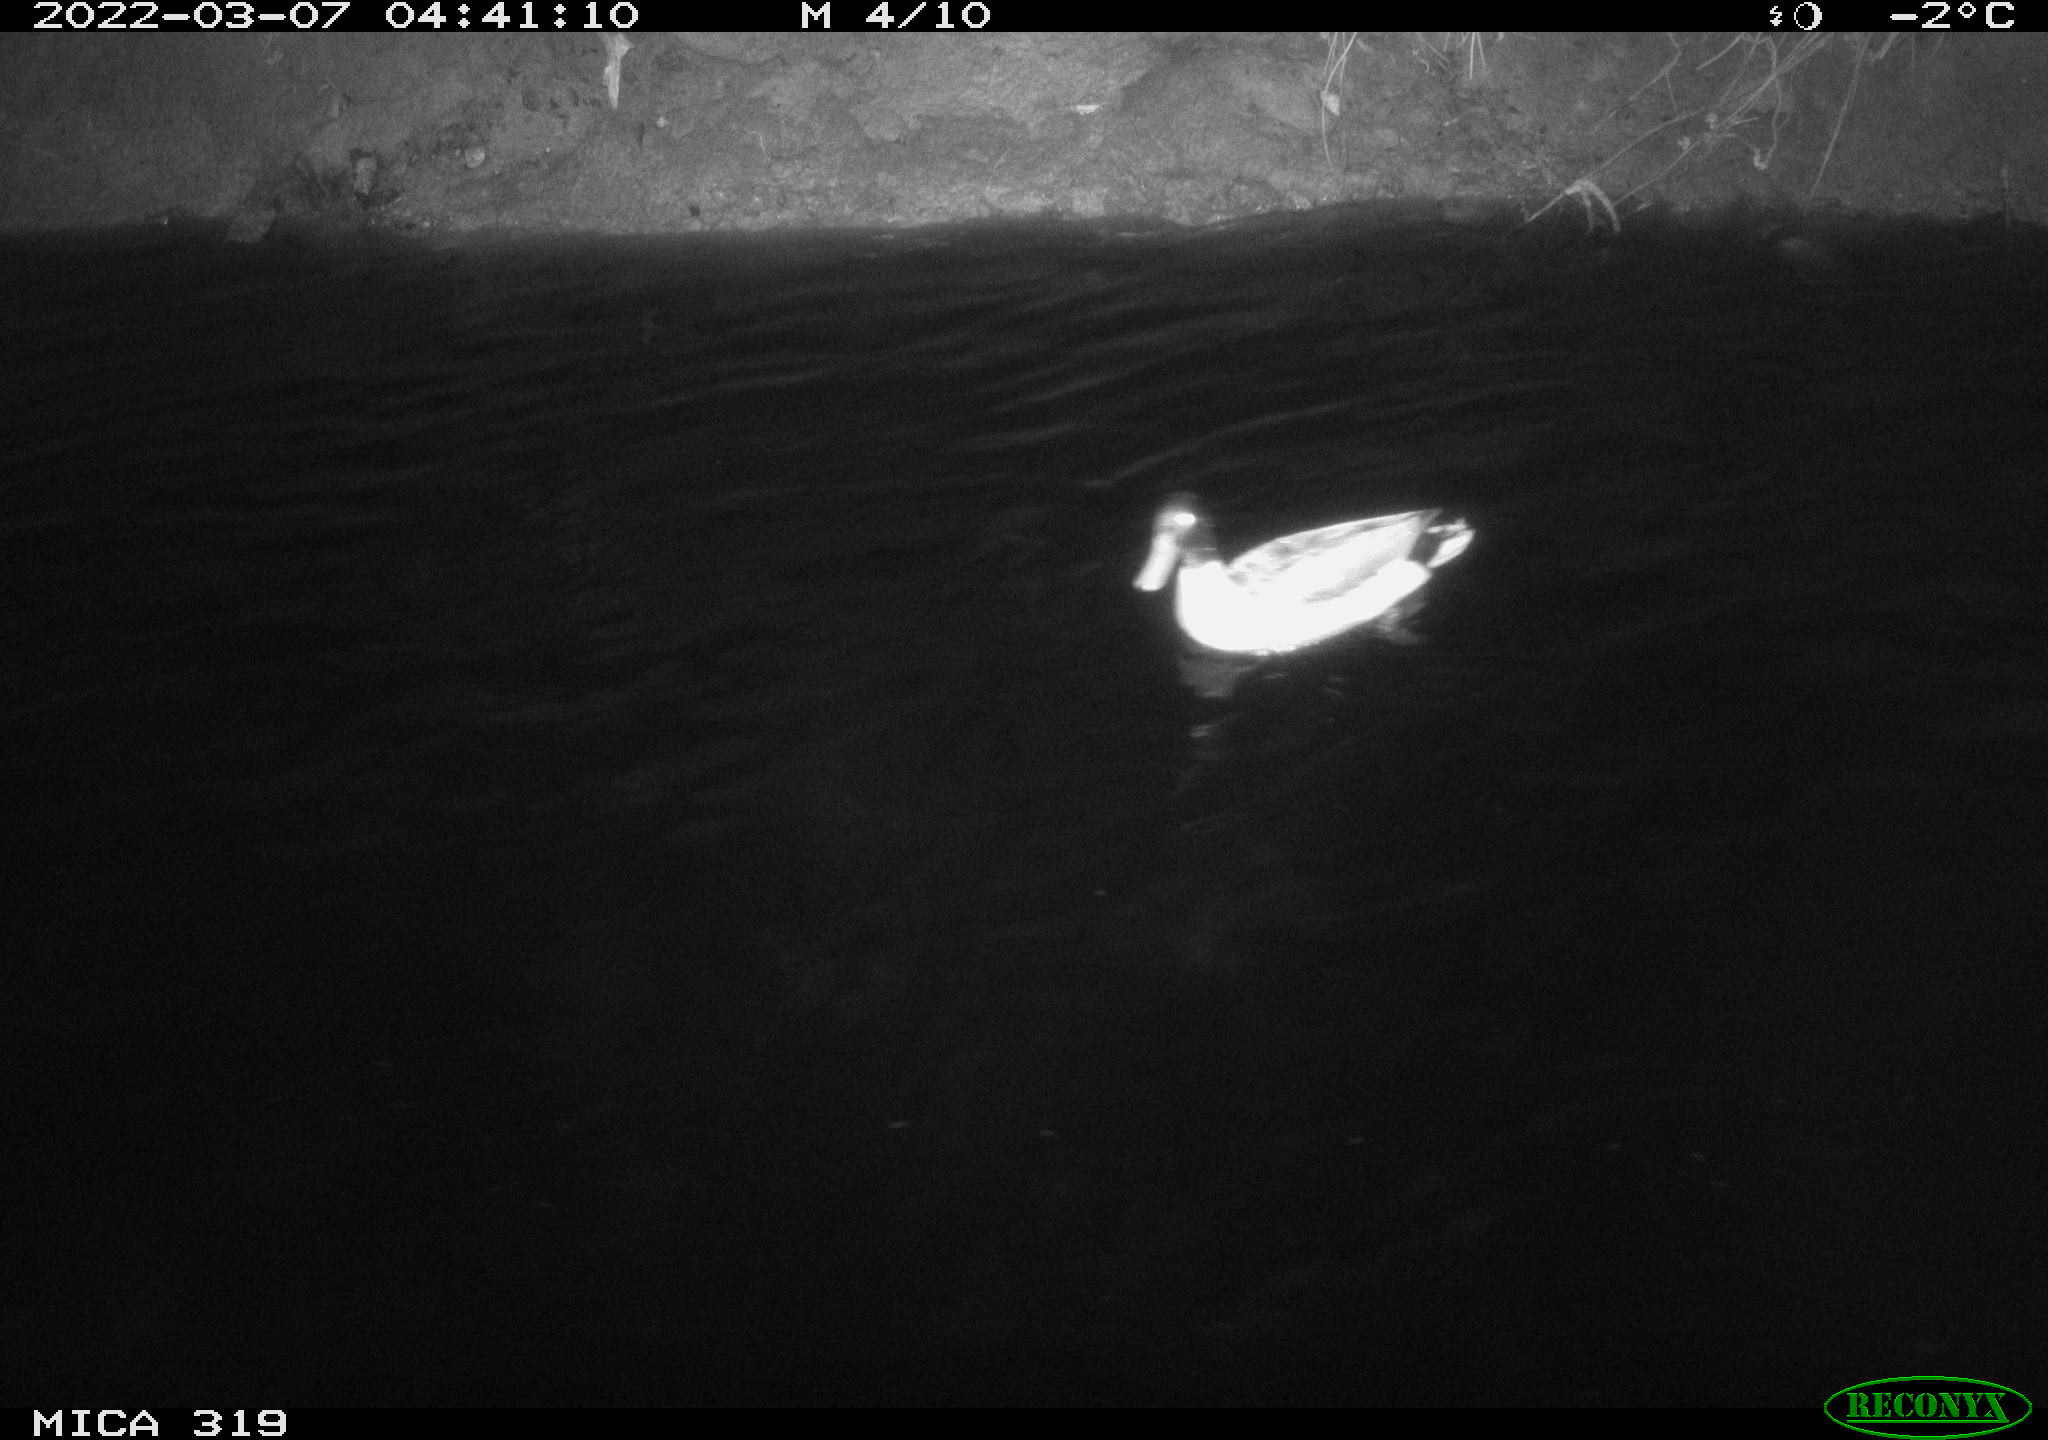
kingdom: Animalia
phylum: Chordata
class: Aves
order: Anseriformes
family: Anatidae
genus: Anas
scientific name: Anas platyrhynchos
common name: Mallard
